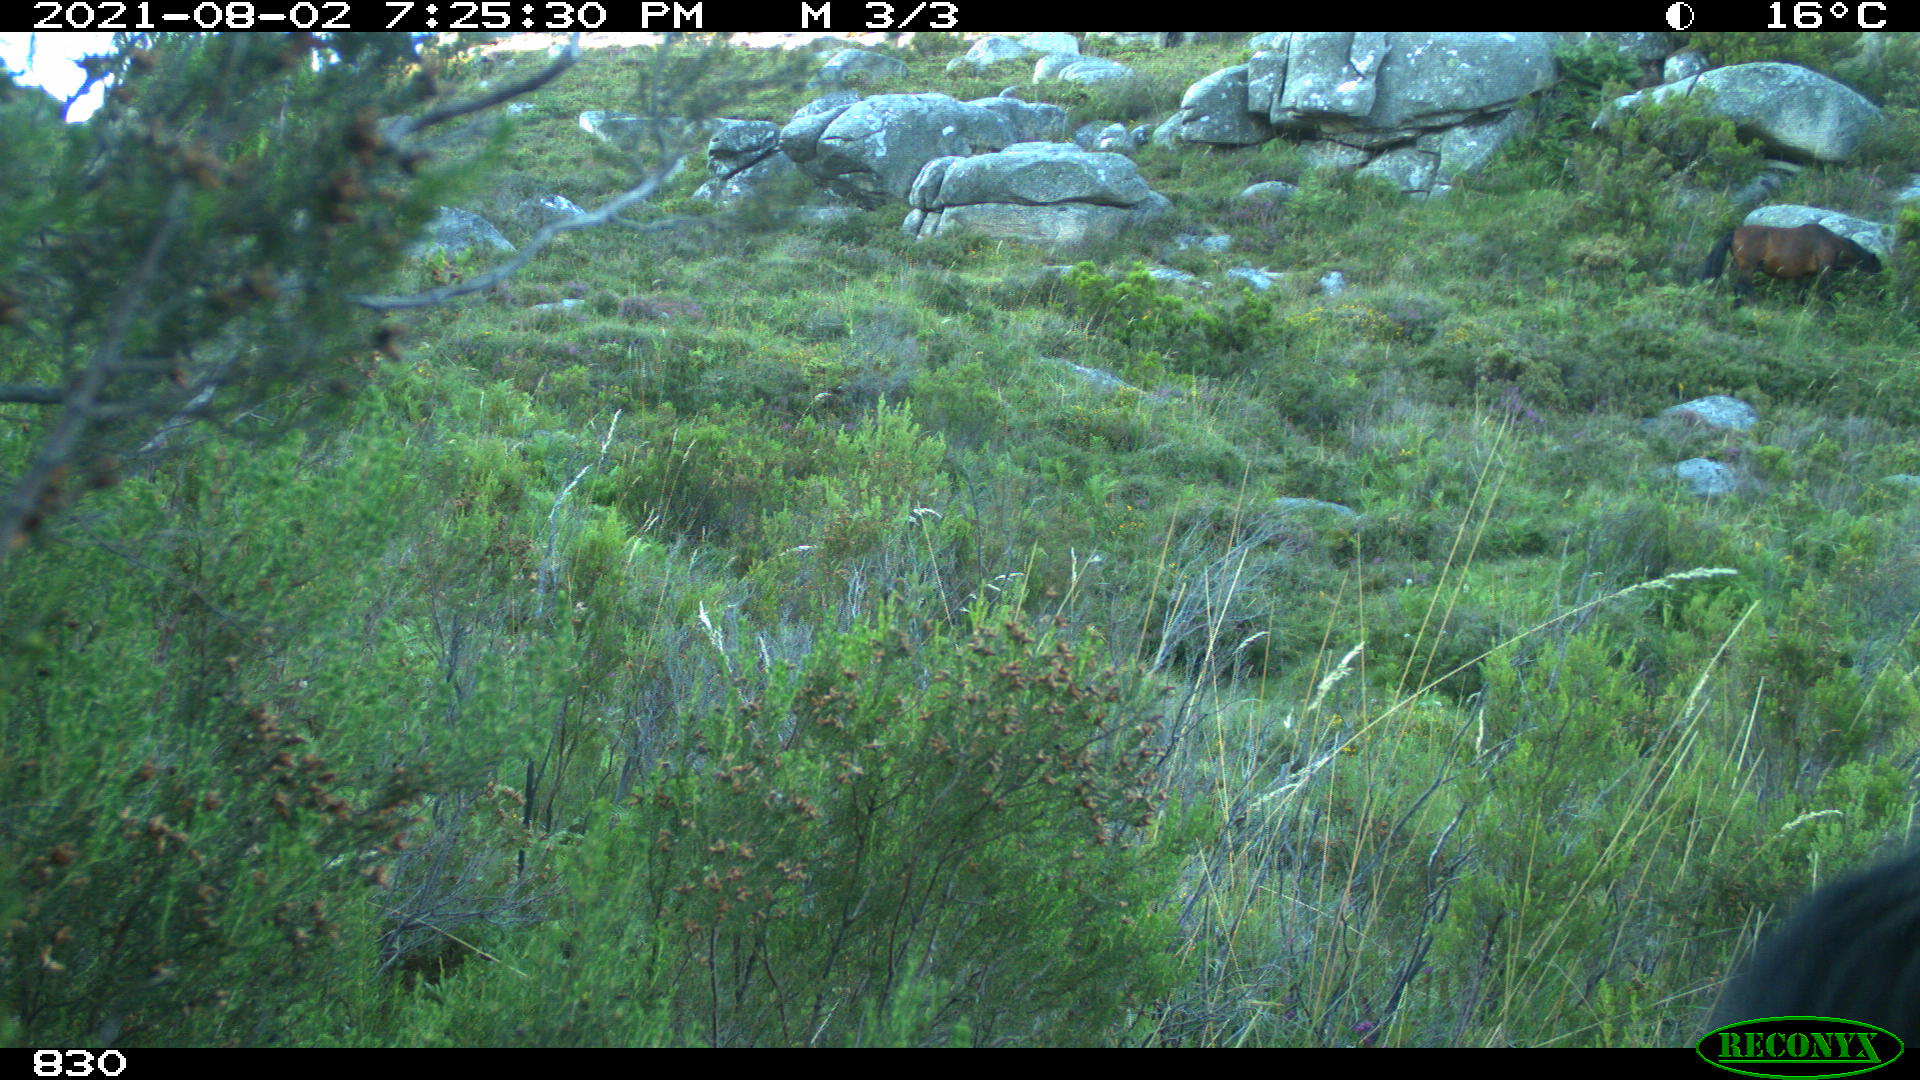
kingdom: Animalia
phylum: Chordata
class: Mammalia
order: Perissodactyla
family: Equidae
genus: Equus
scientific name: Equus caballus
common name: Horse
